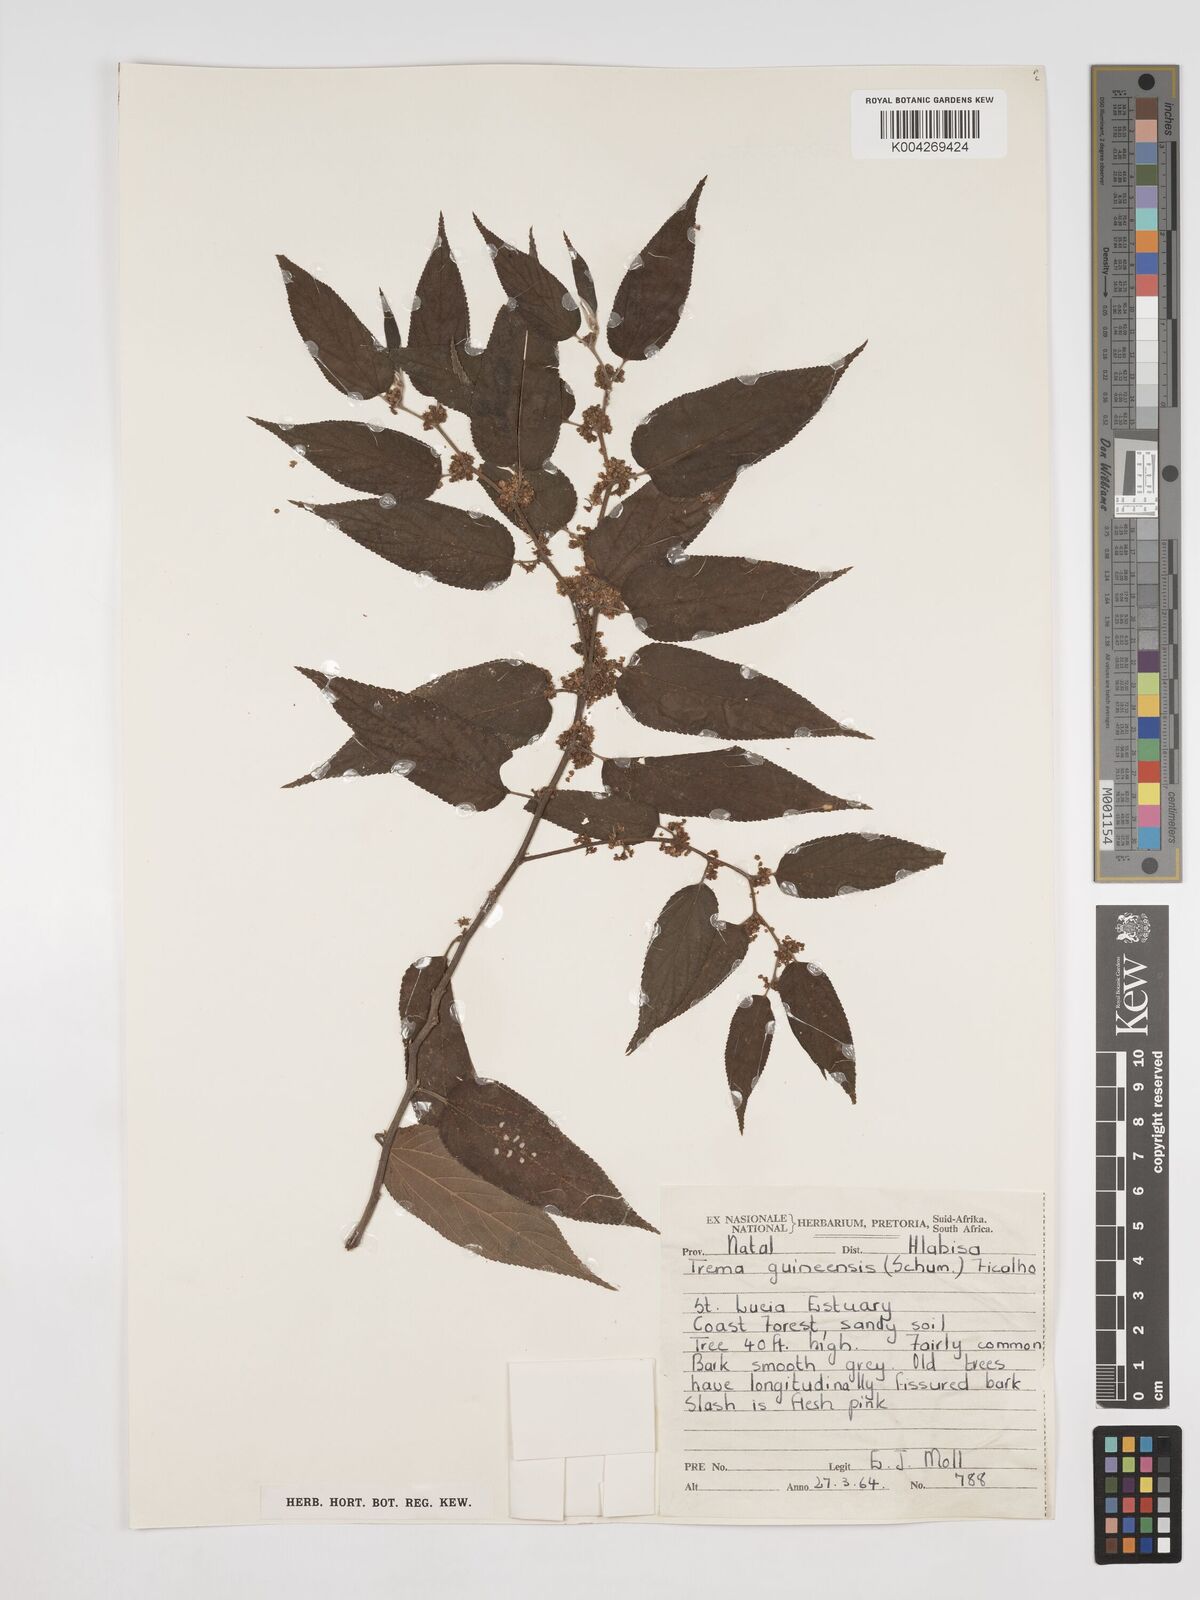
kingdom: Plantae
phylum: Tracheophyta
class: Magnoliopsida
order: Rosales
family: Cannabaceae
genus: Trema
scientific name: Trema orientale
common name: Indian charcoal tree
